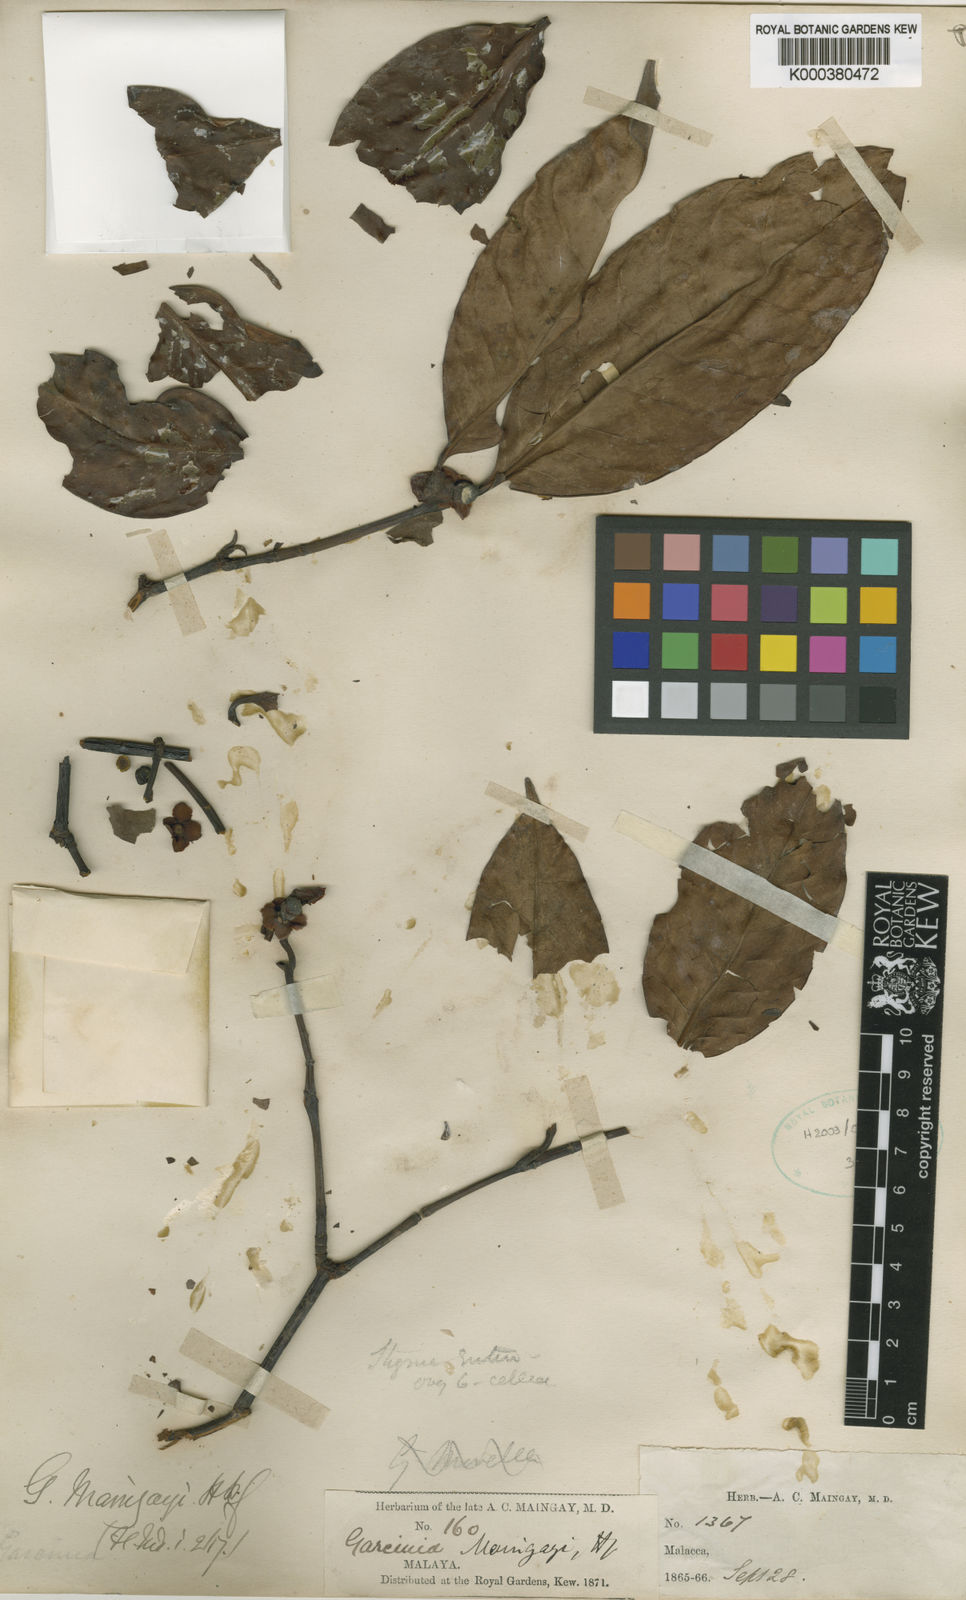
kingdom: Plantae
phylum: Tracheophyta
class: Magnoliopsida
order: Malpighiales
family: Clusiaceae
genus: Garcinia
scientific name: Garcinia
